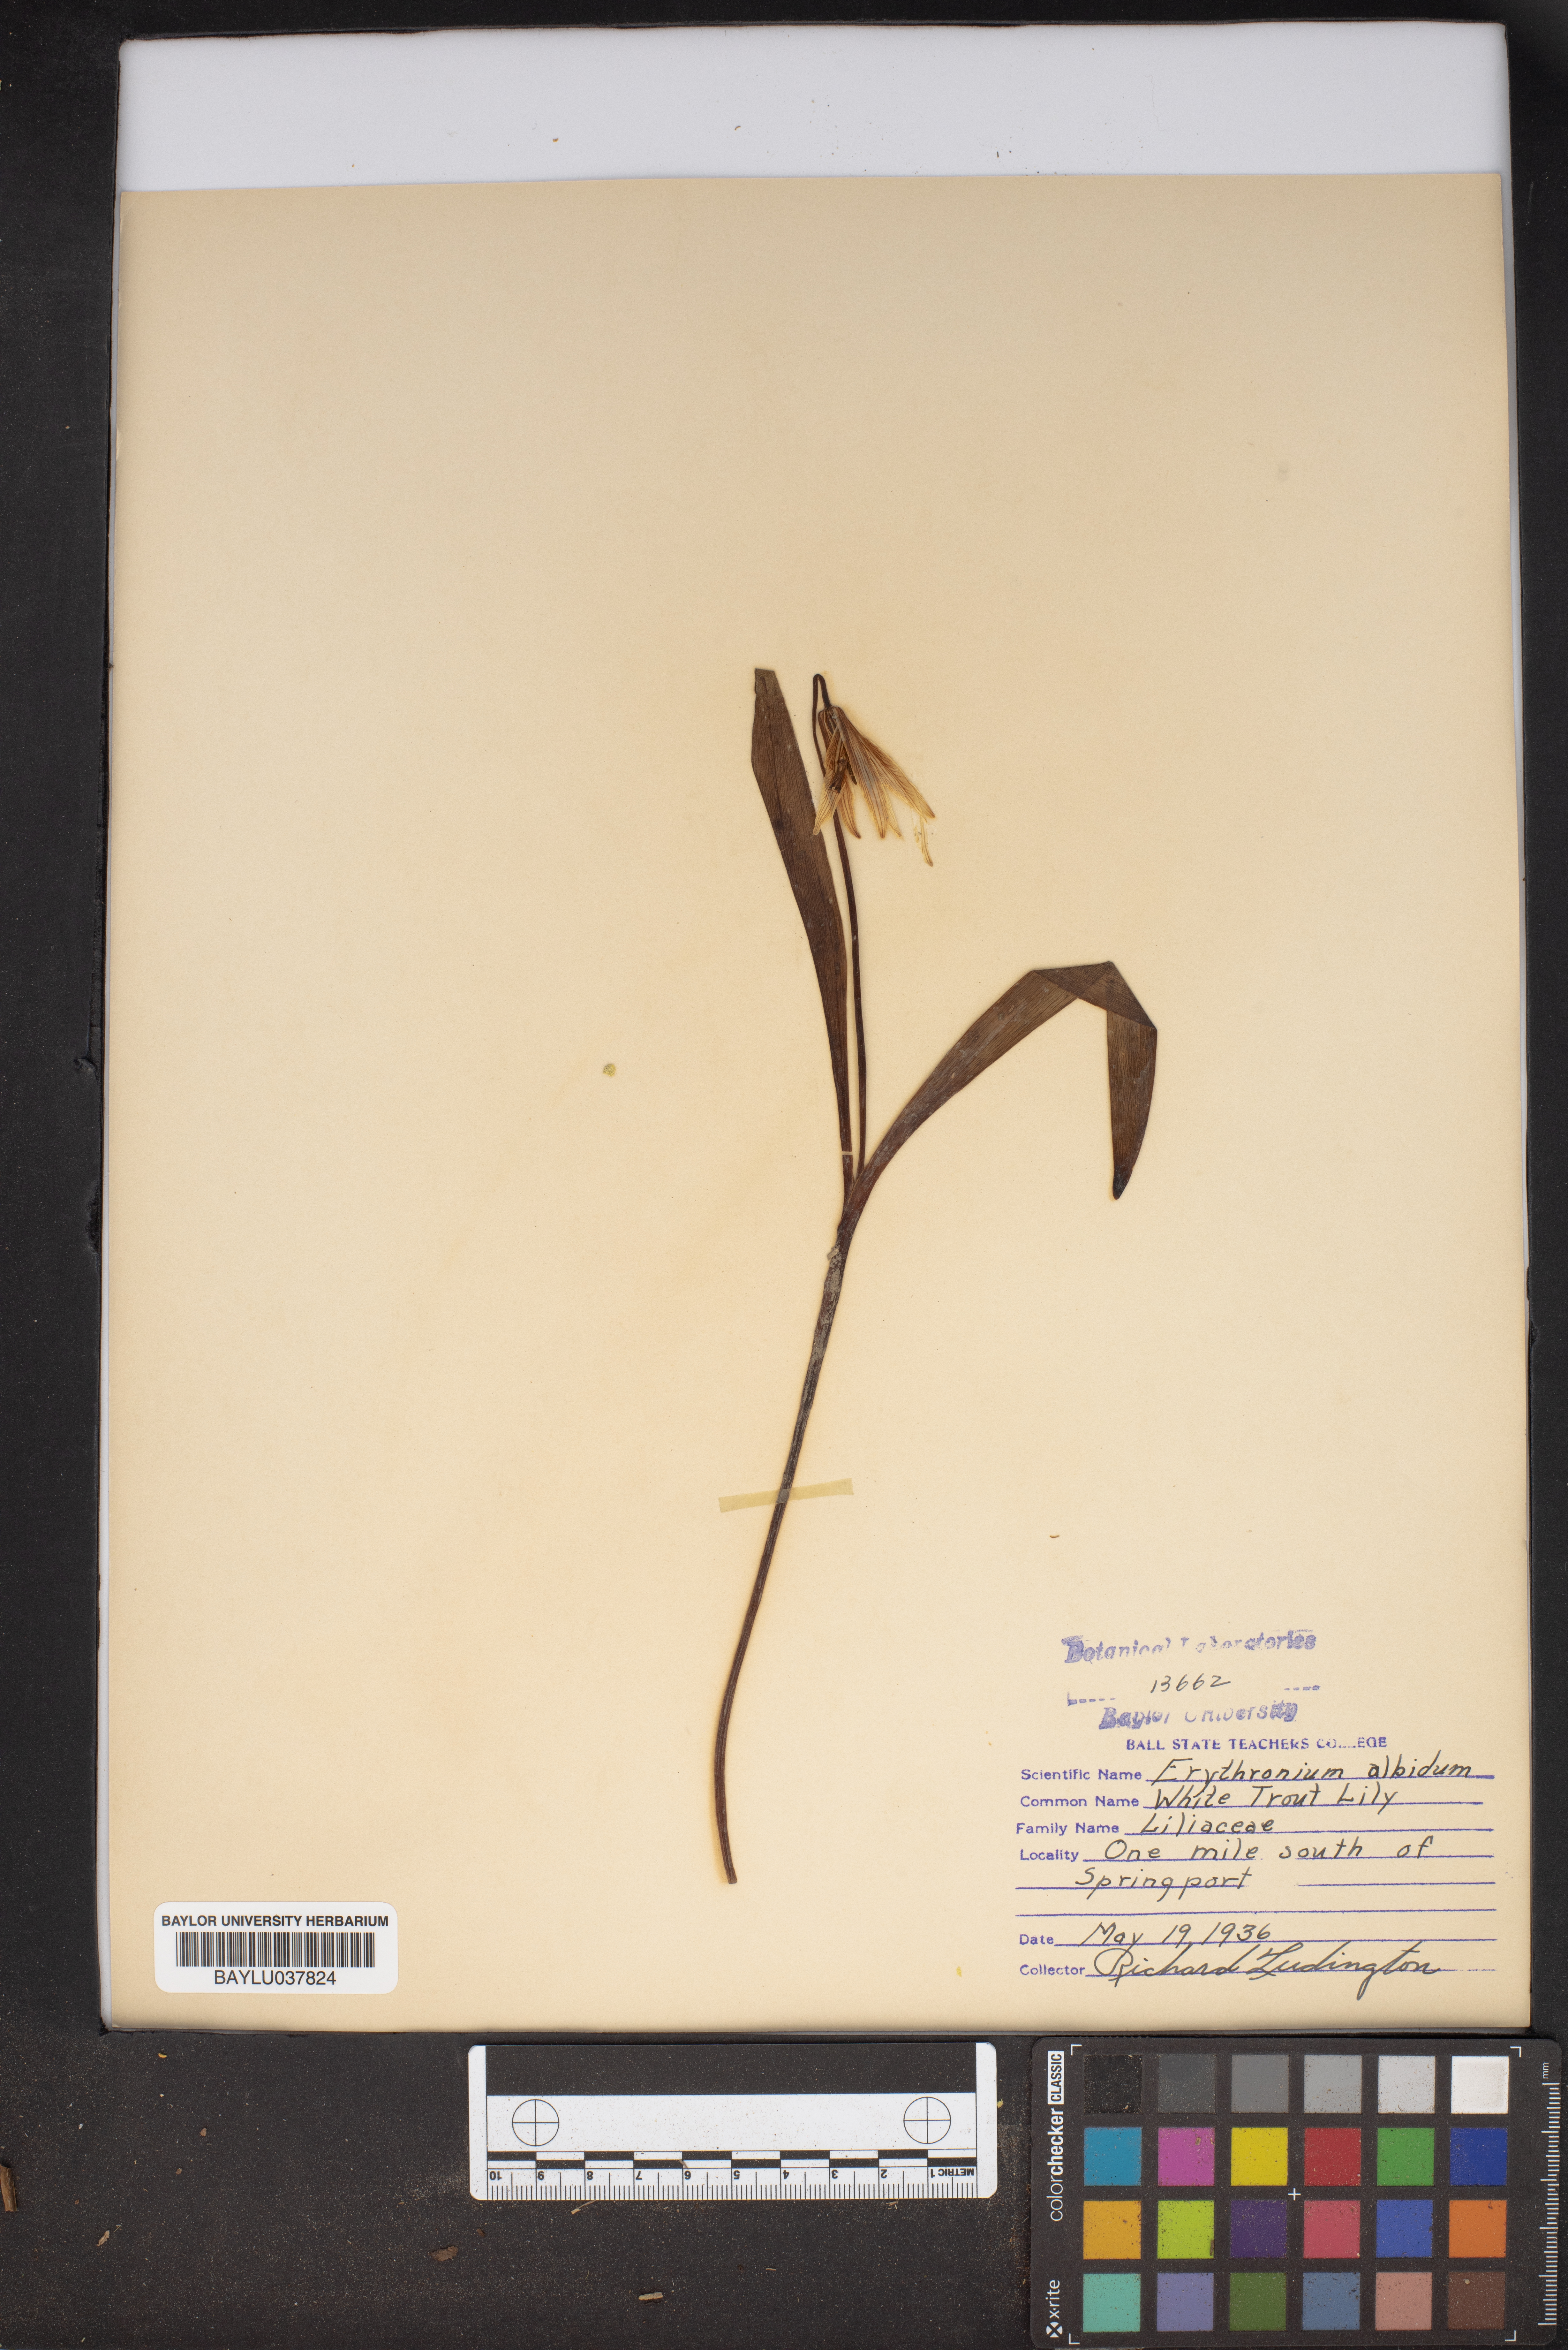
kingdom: Plantae
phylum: Tracheophyta
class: Liliopsida
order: Liliales
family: Liliaceae
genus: Erythronium
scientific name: Erythronium albidum
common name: White trout-lily
